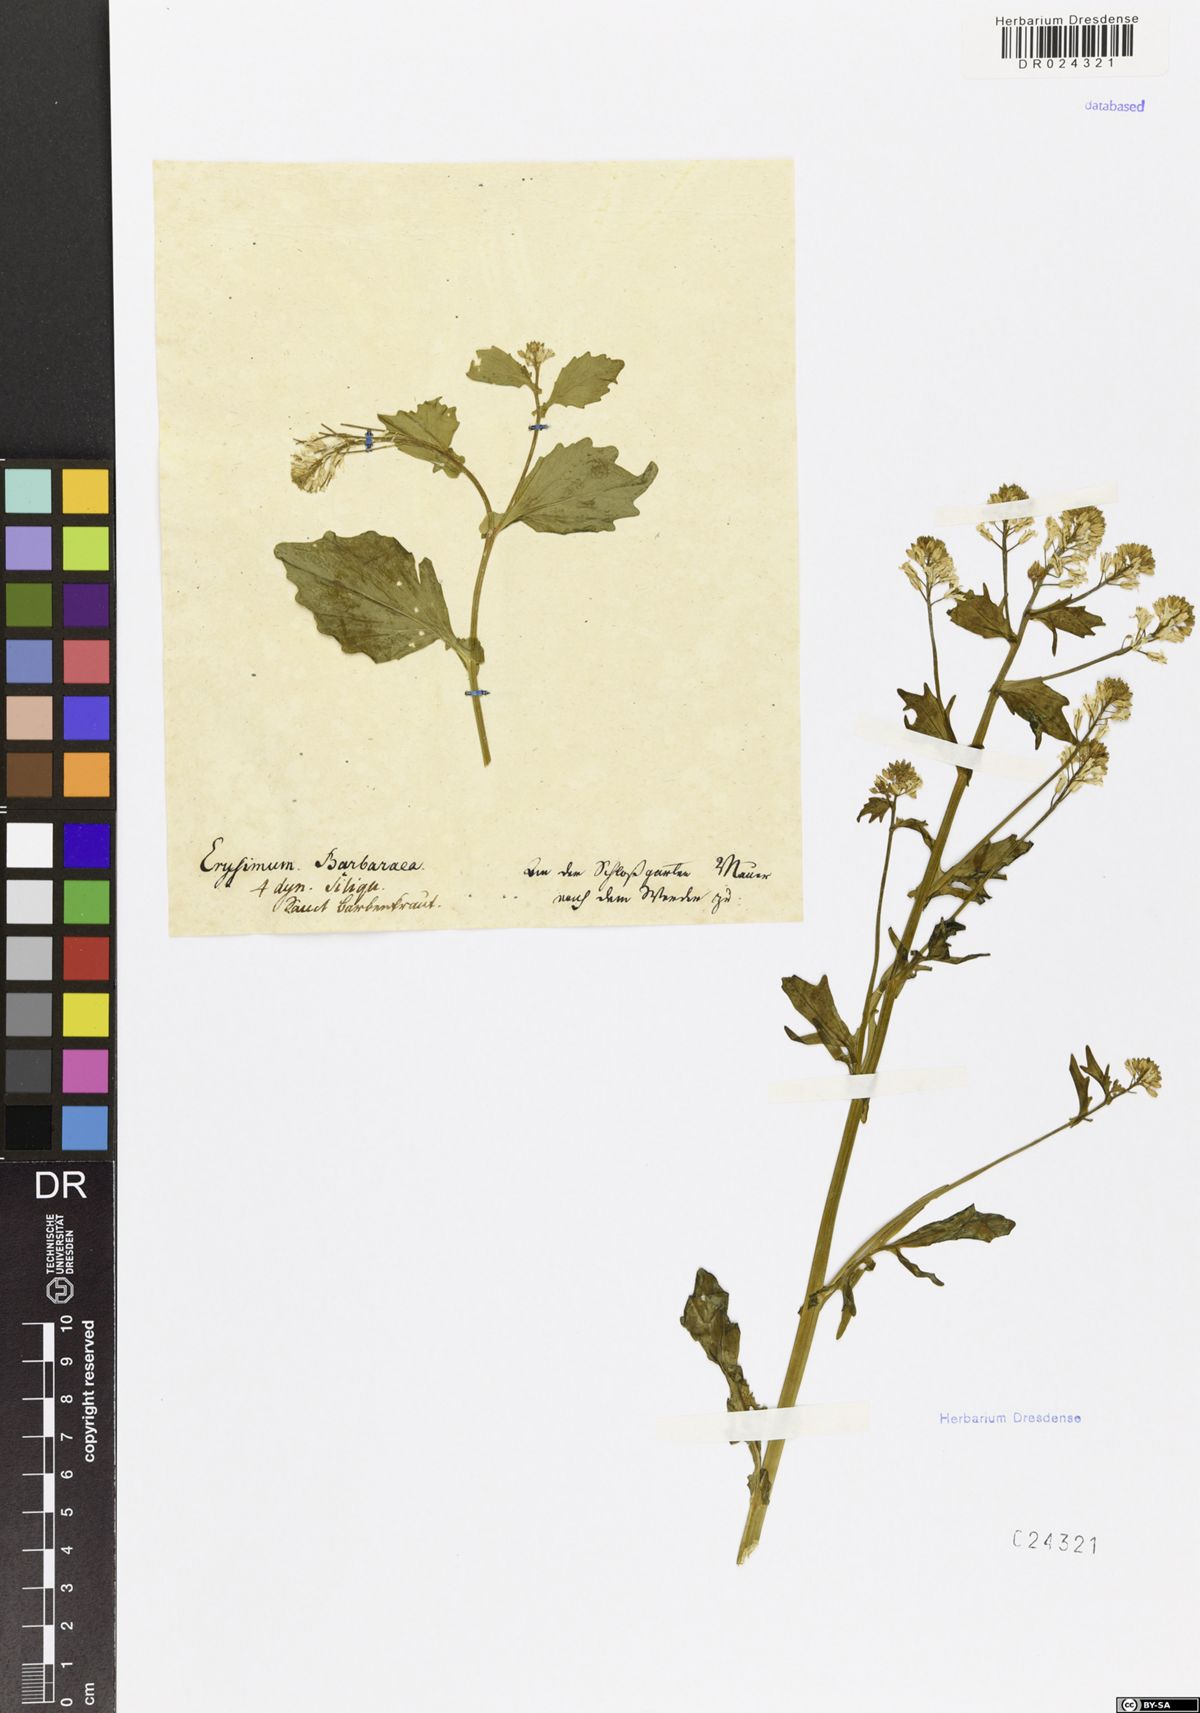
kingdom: Plantae
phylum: Tracheophyta
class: Magnoliopsida
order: Brassicales
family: Brassicaceae
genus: Barbarea
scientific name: Barbarea vulgaris
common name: Cressy-greens
